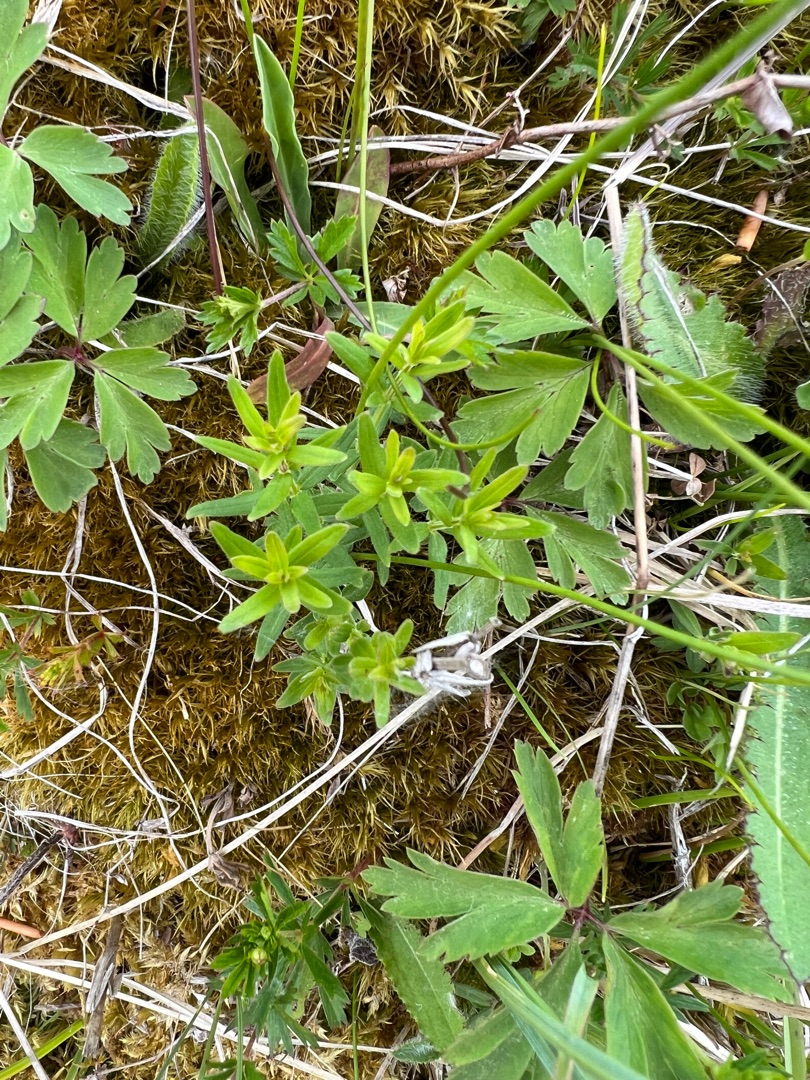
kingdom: Plantae
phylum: Tracheophyta
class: Magnoliopsida
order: Gentianales
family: Rubiaceae
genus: Galium
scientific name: Galium boreale
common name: Trenervet snerre
